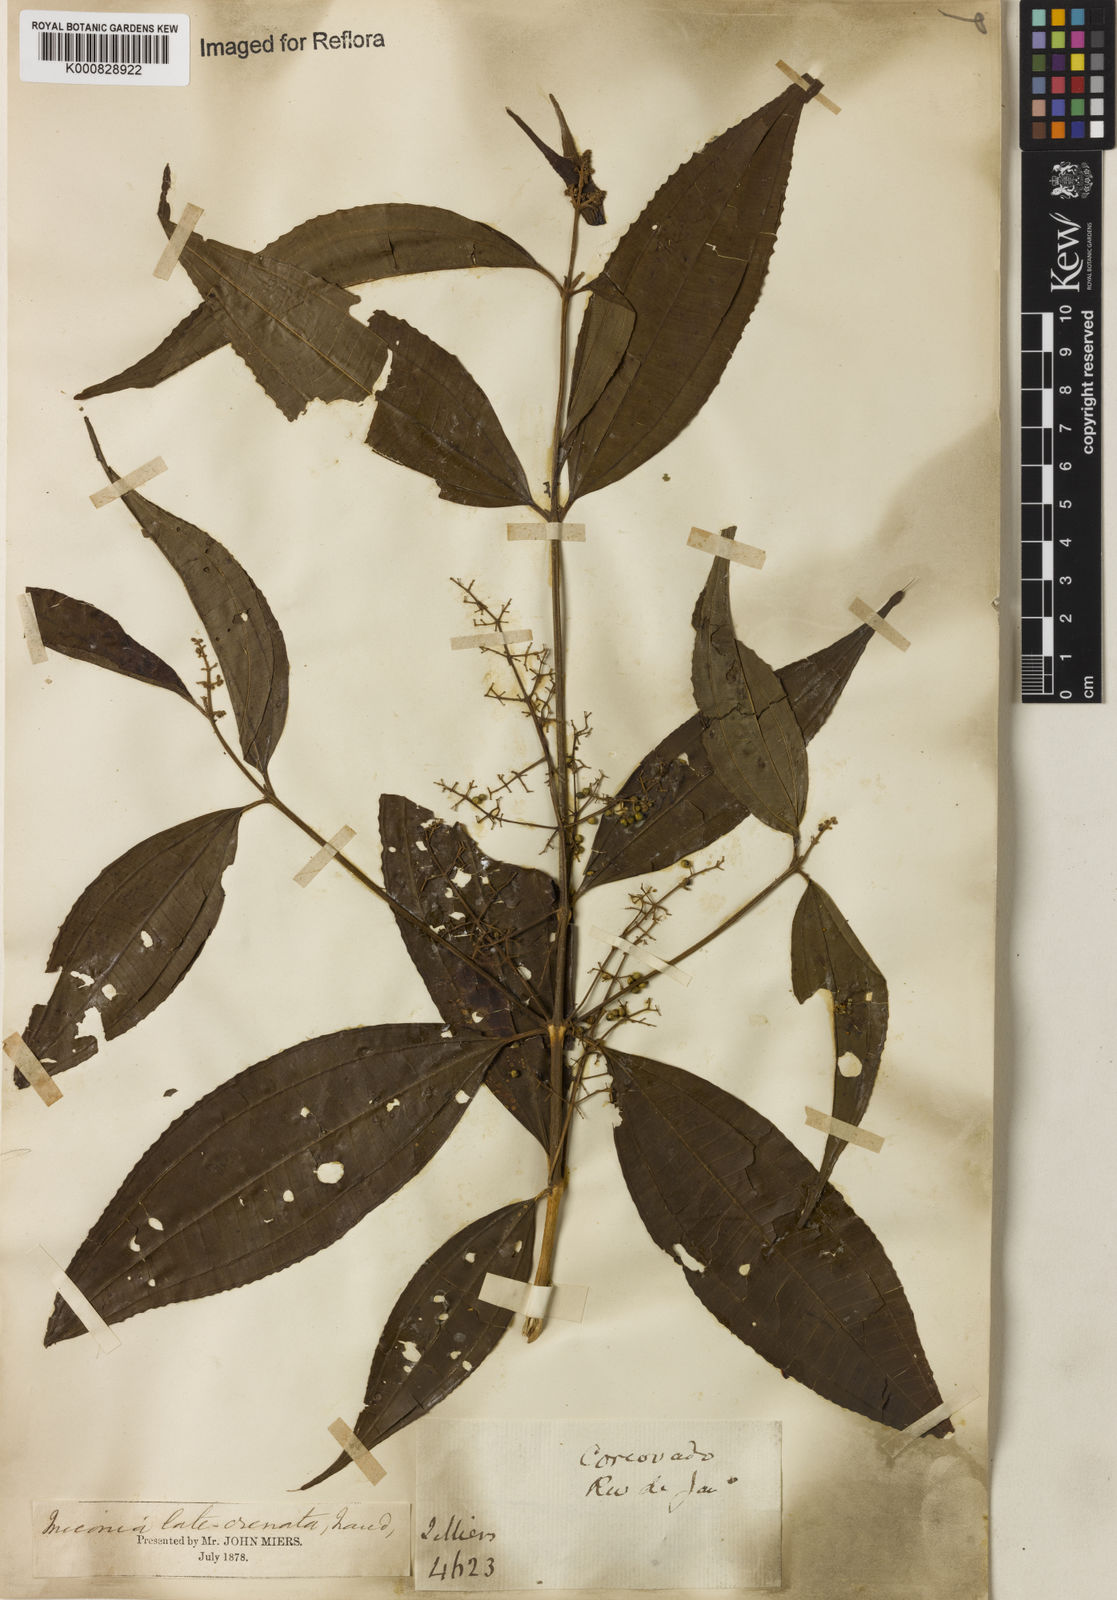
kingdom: Plantae
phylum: Tracheophyta
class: Magnoliopsida
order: Myrtales
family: Melastomataceae
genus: Miconia
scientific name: Miconia latecrenata
